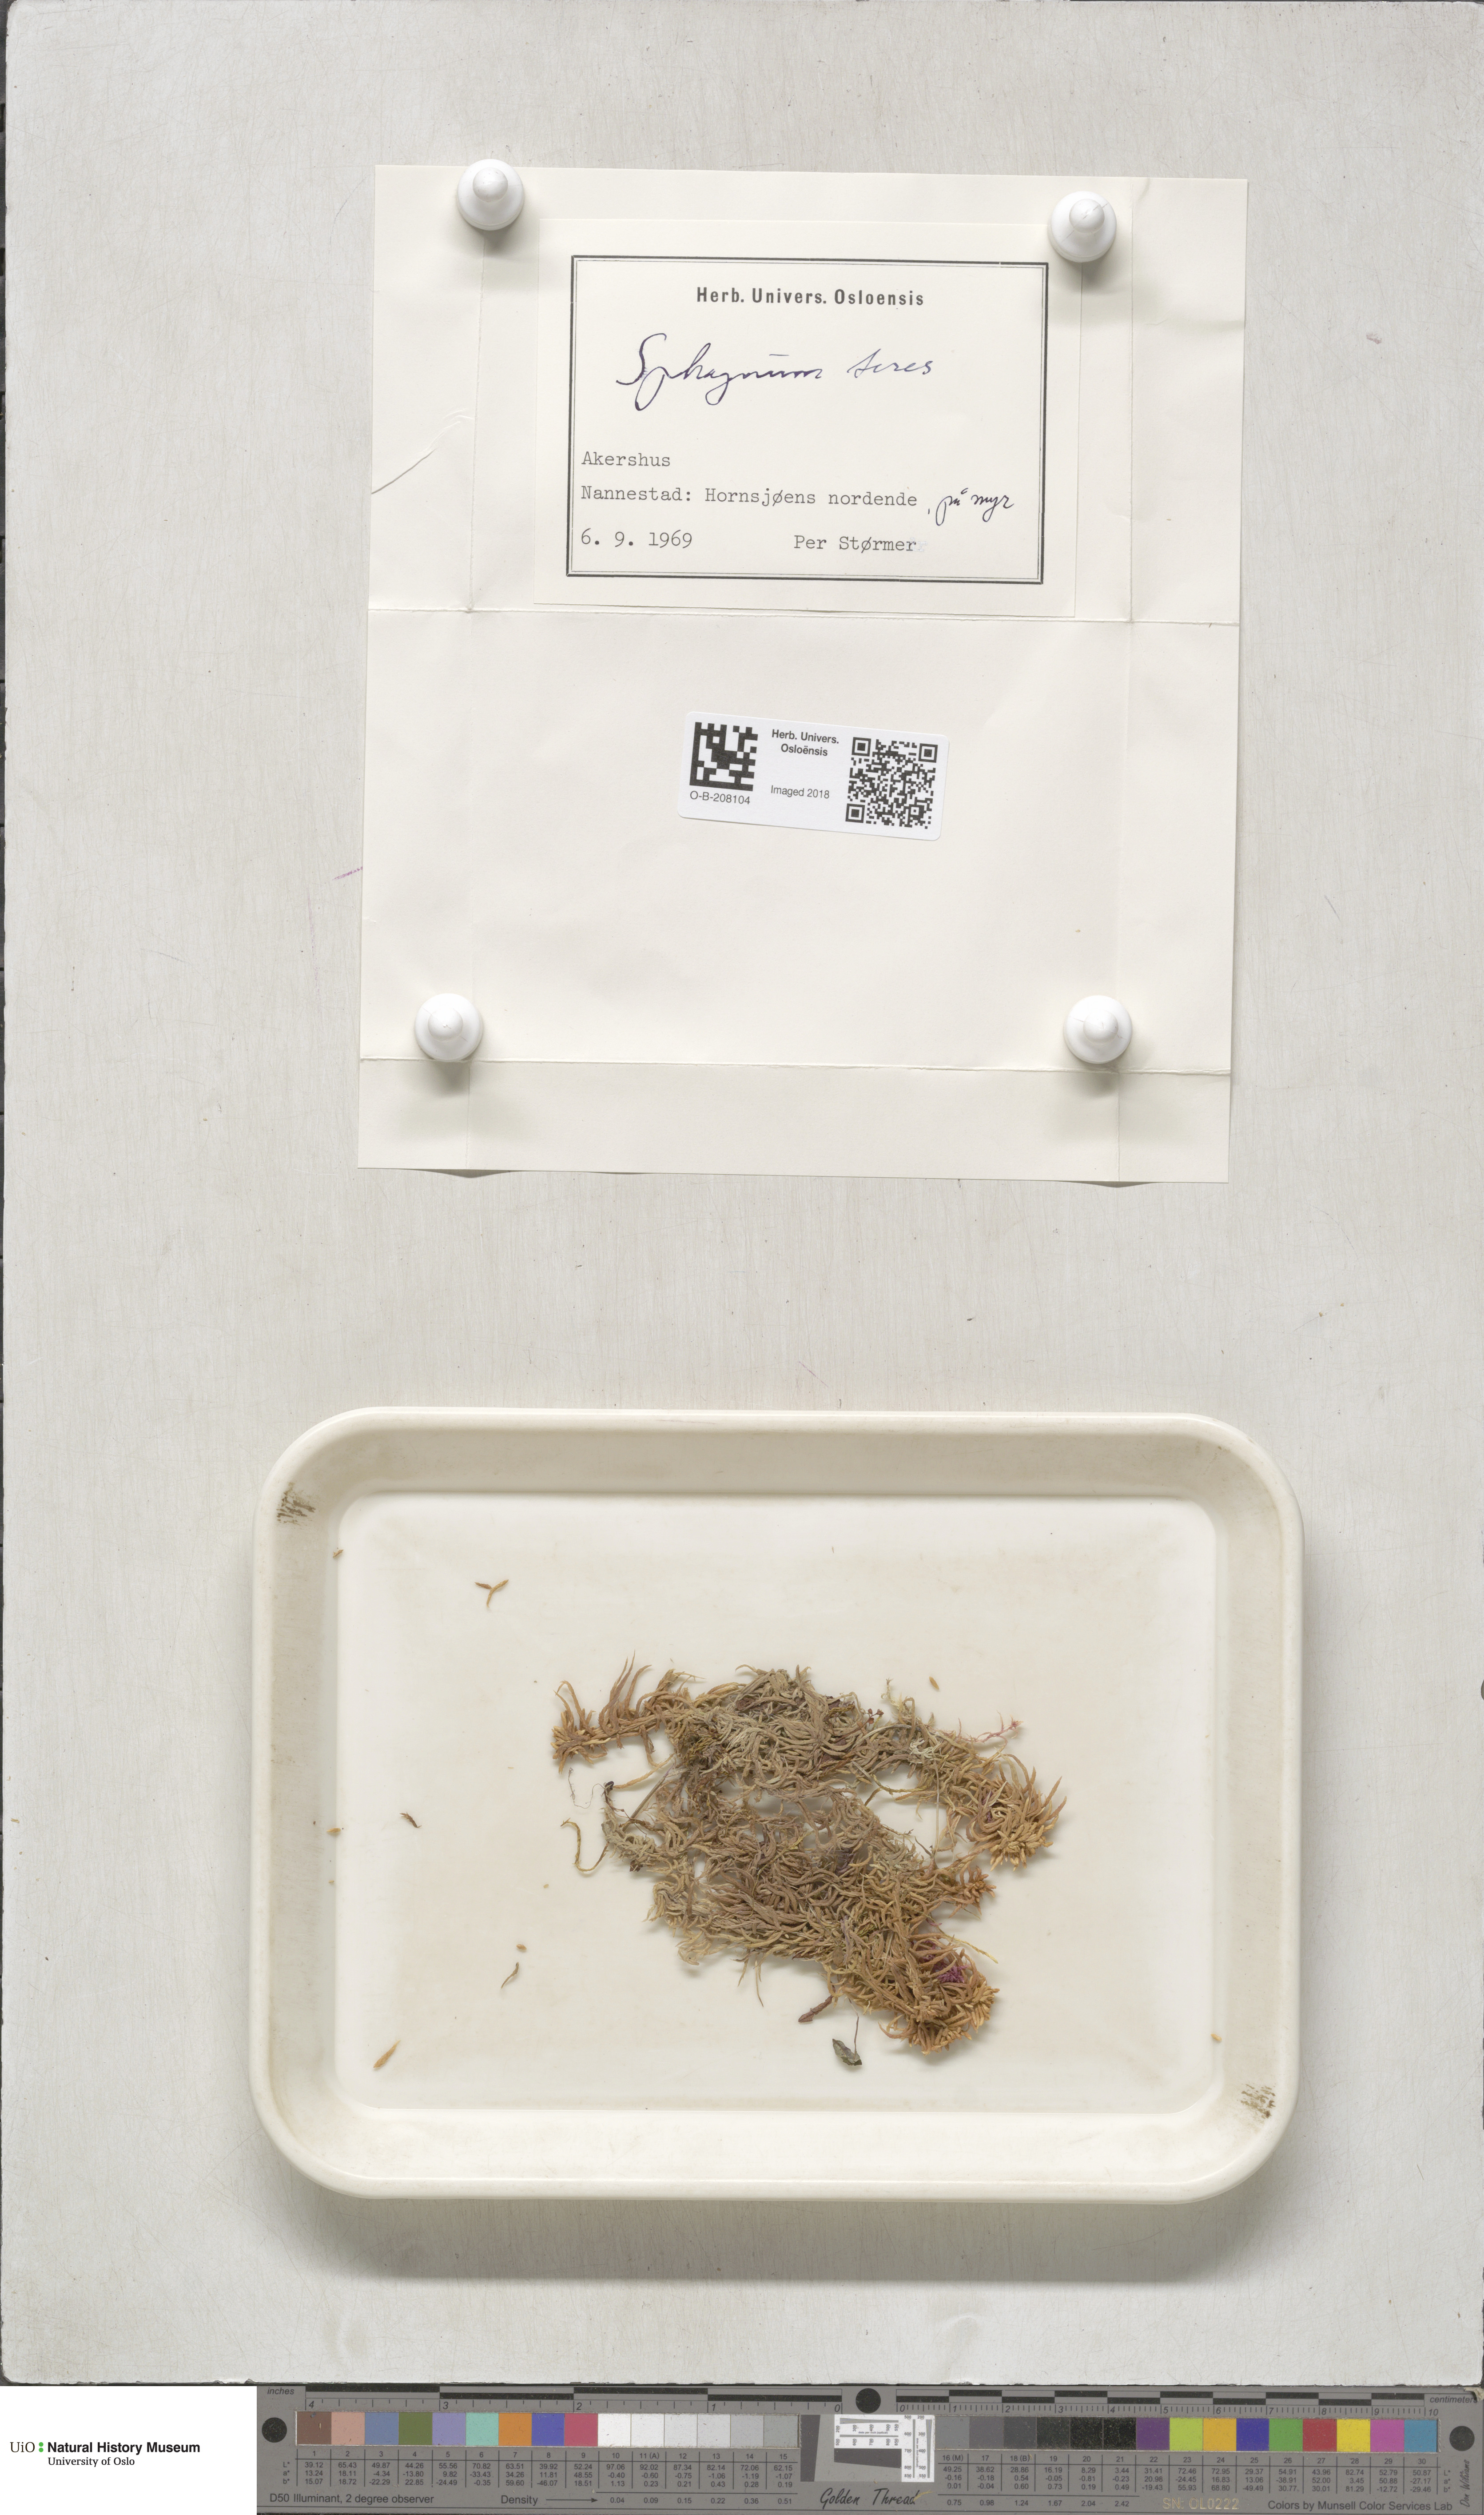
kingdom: Plantae
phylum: Bryophyta
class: Sphagnopsida
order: Sphagnales
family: Sphagnaceae
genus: Sphagnum
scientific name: Sphagnum teres
